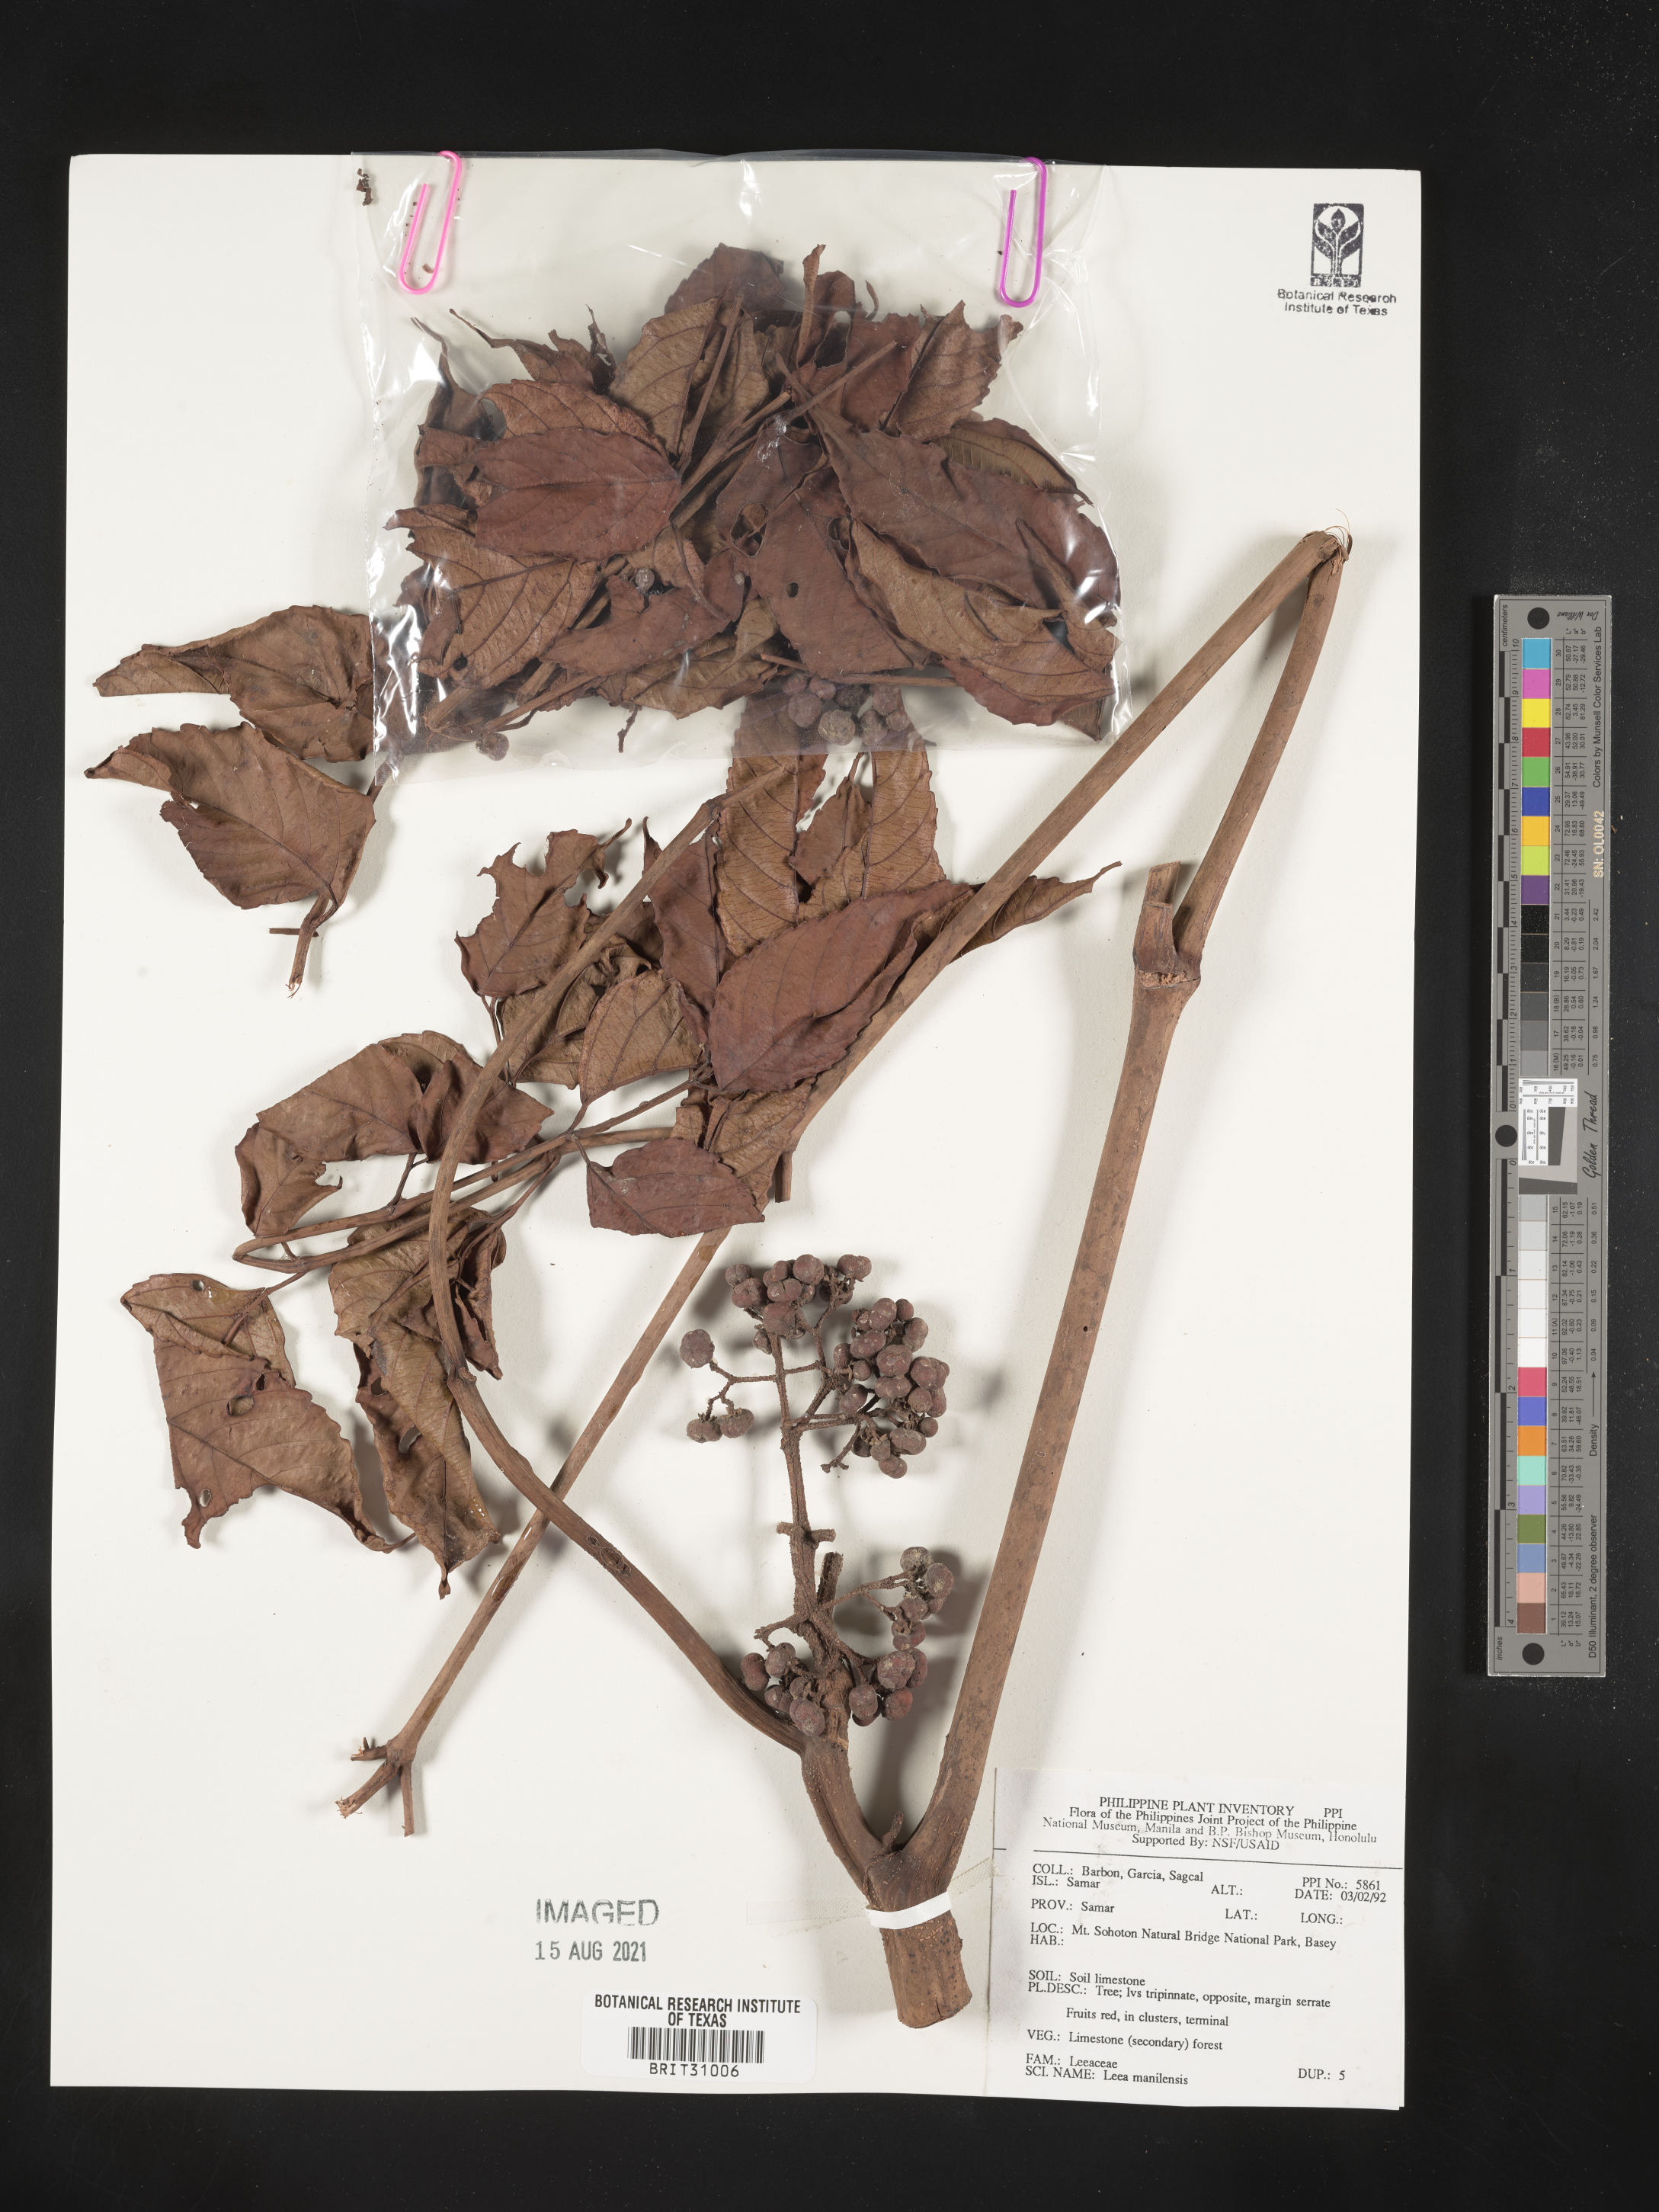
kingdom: Plantae
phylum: Tracheophyta
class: Magnoliopsida
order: Vitales
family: Vitaceae
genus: Leea
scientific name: Leea guineensis
